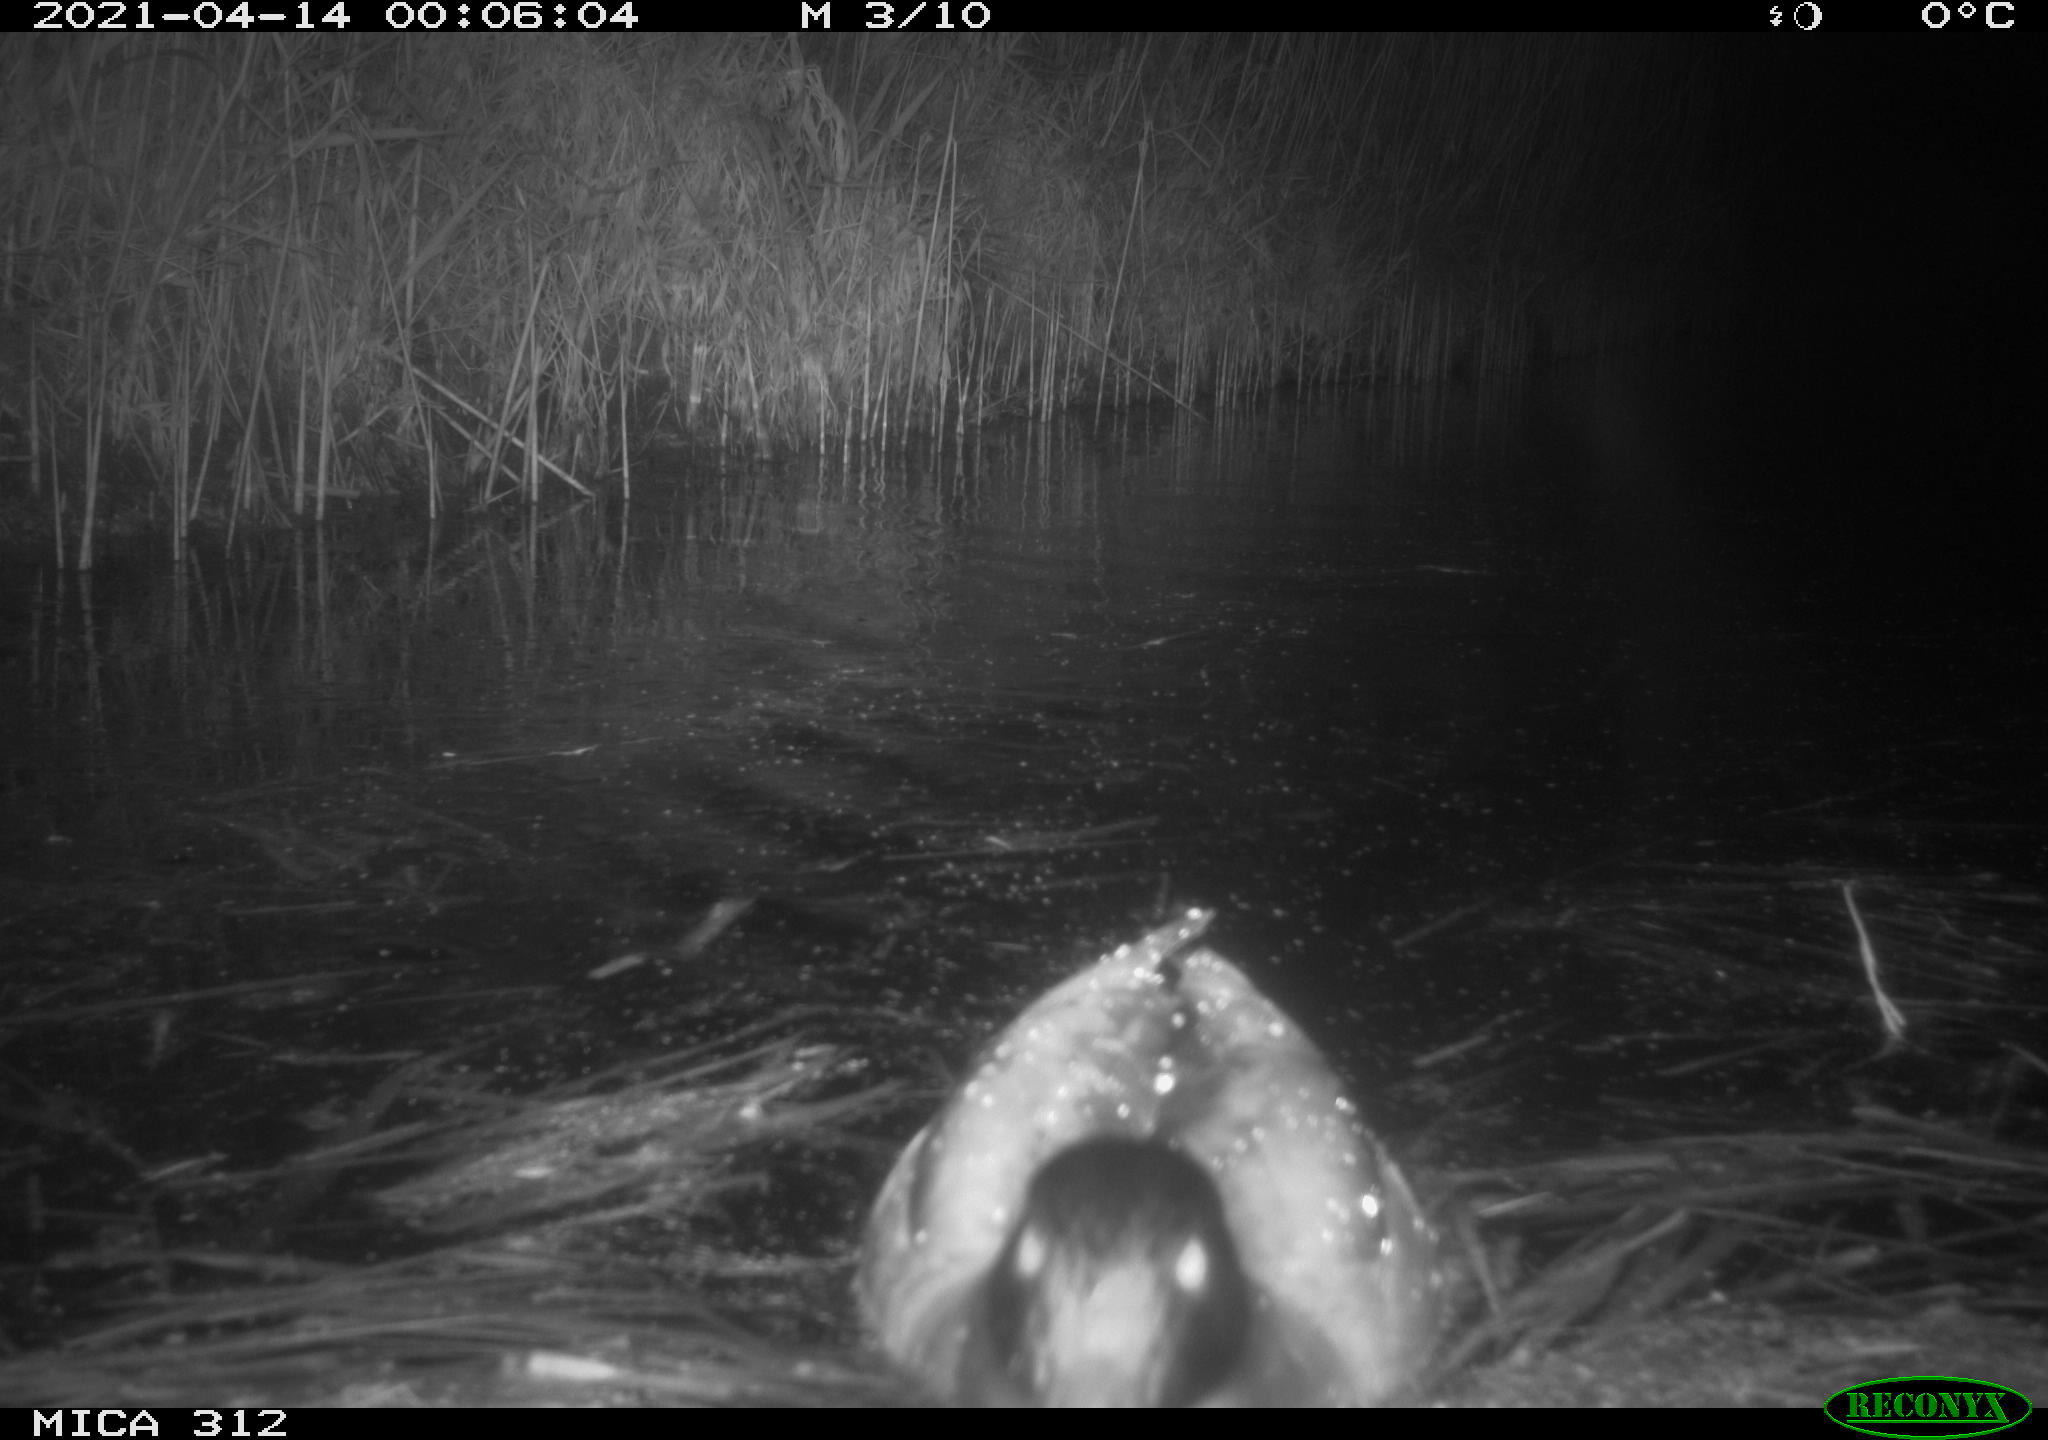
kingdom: Animalia
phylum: Chordata
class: Aves
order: Anseriformes
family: Anatidae
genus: Anas
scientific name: Anas platyrhynchos
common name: Mallard
